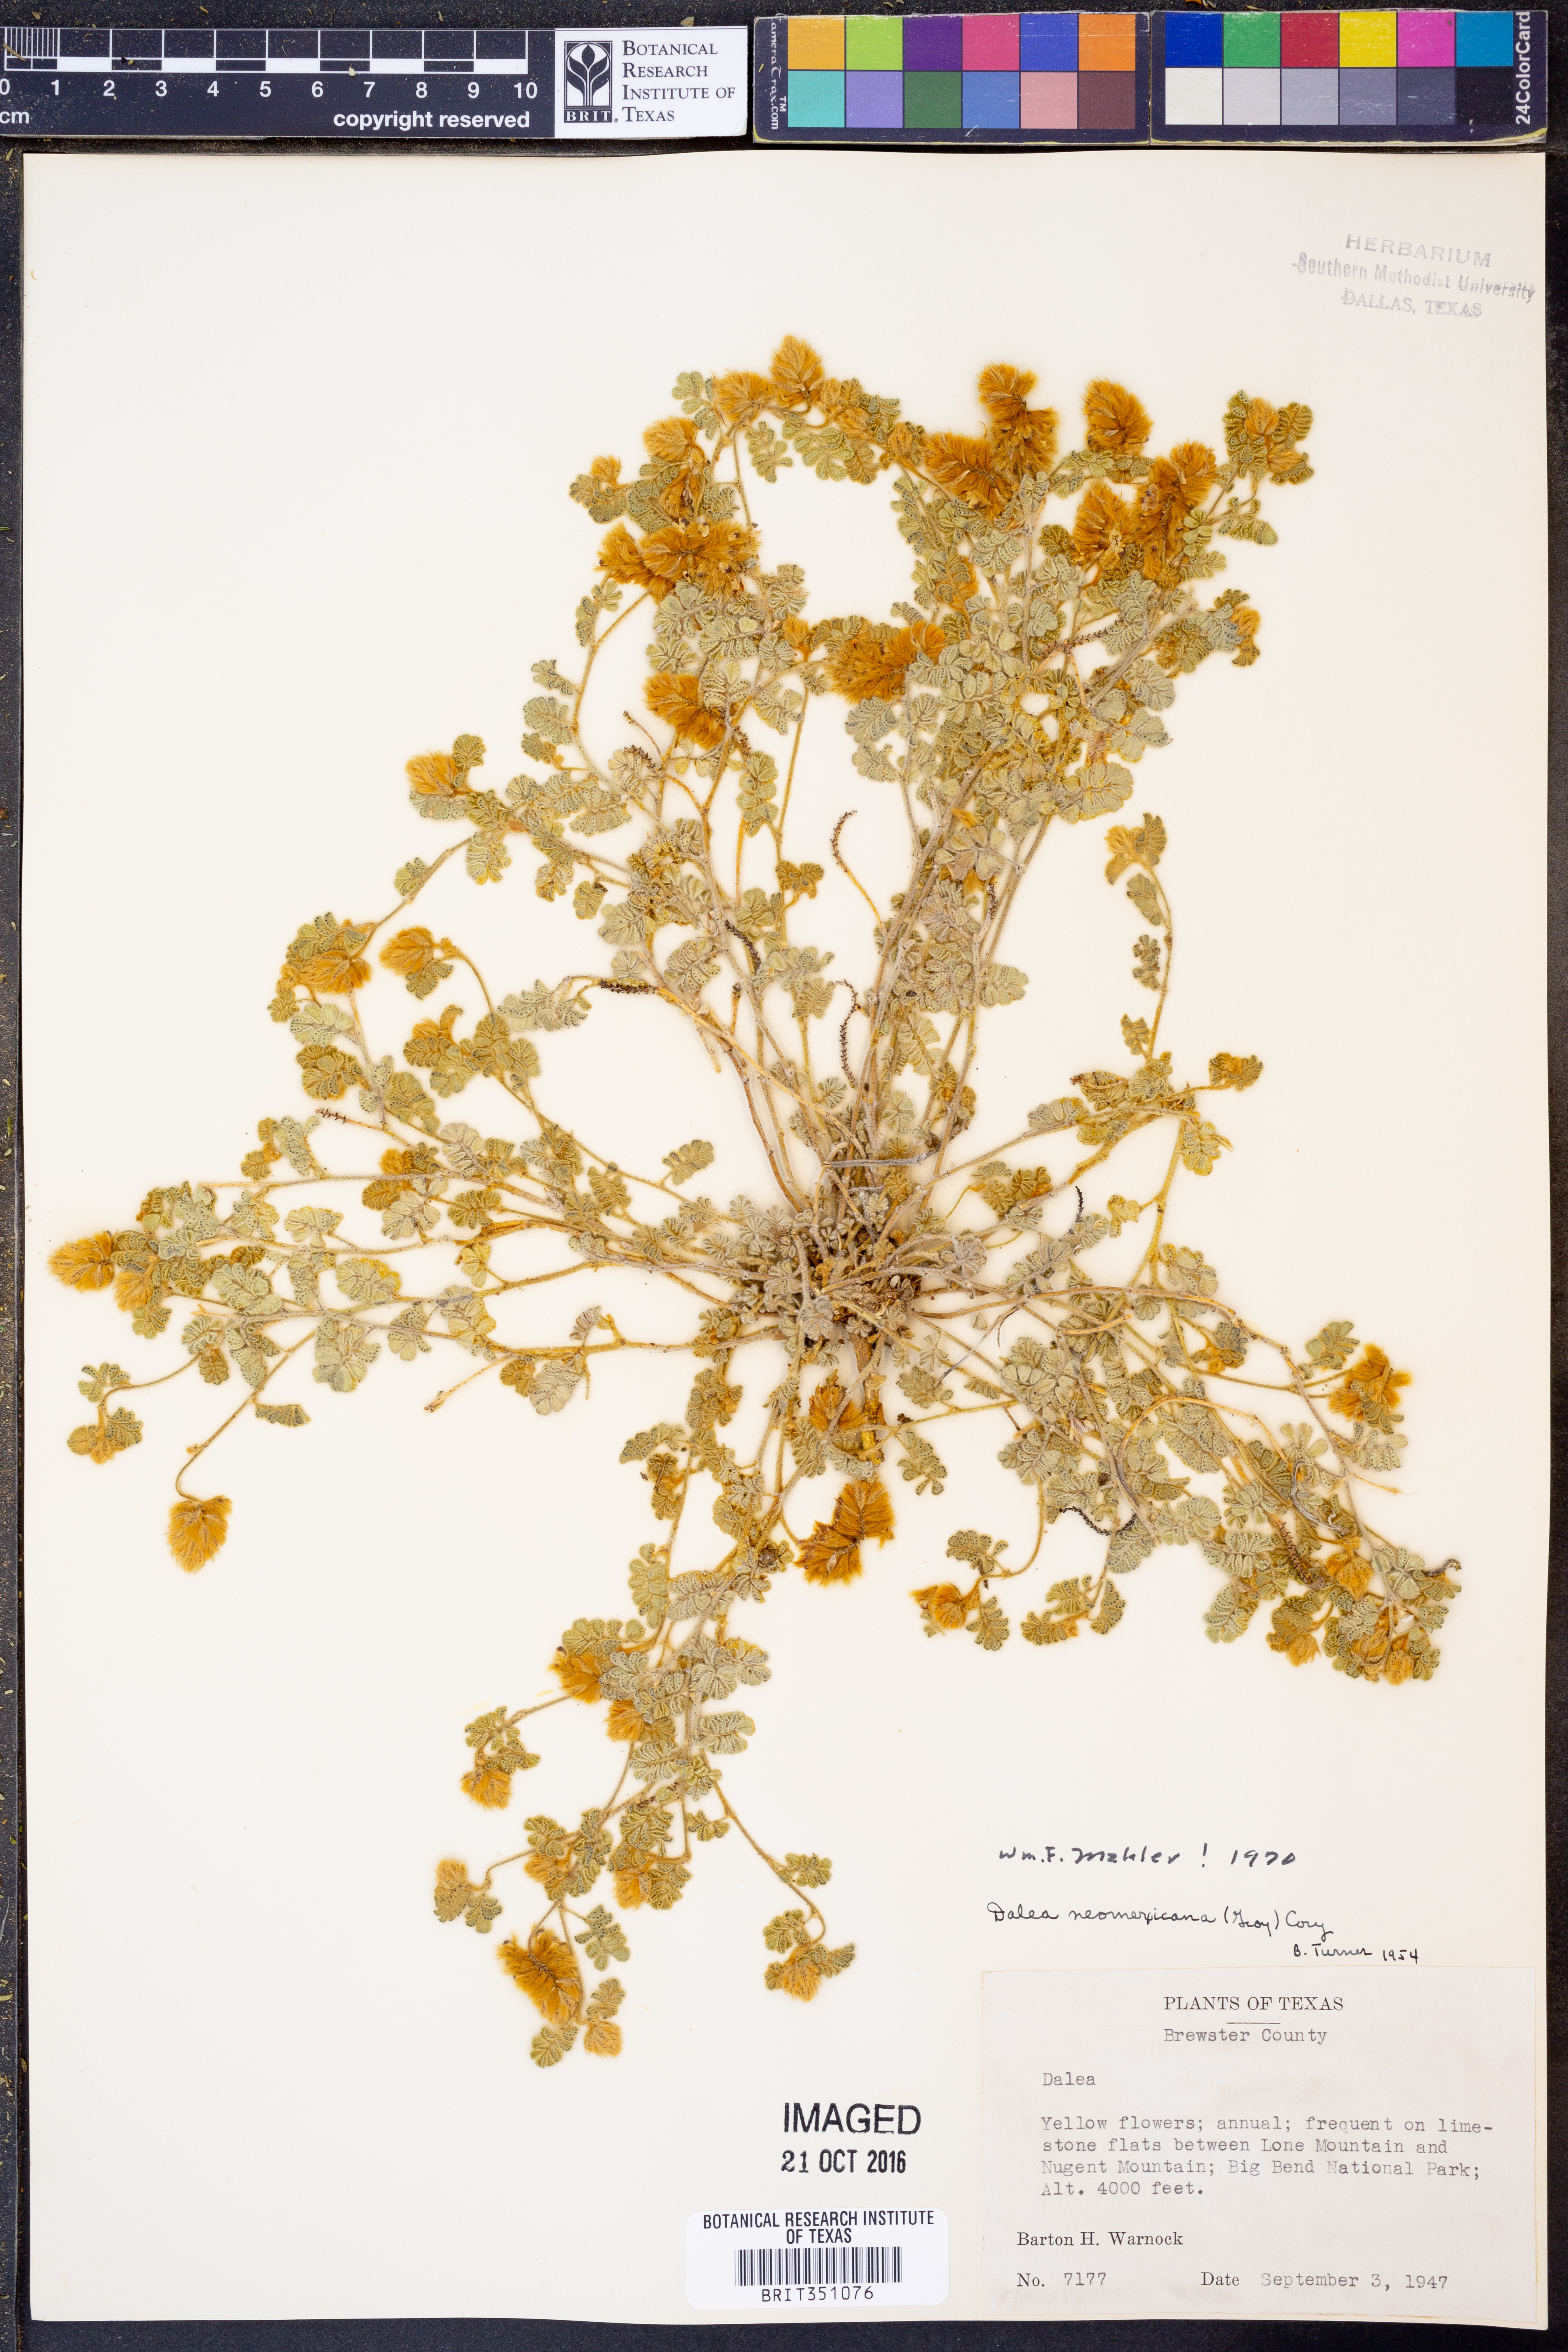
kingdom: Plantae
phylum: Tracheophyta
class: Magnoliopsida
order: Fabales
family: Fabaceae
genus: Dalea
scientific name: Dalea neomexicana
